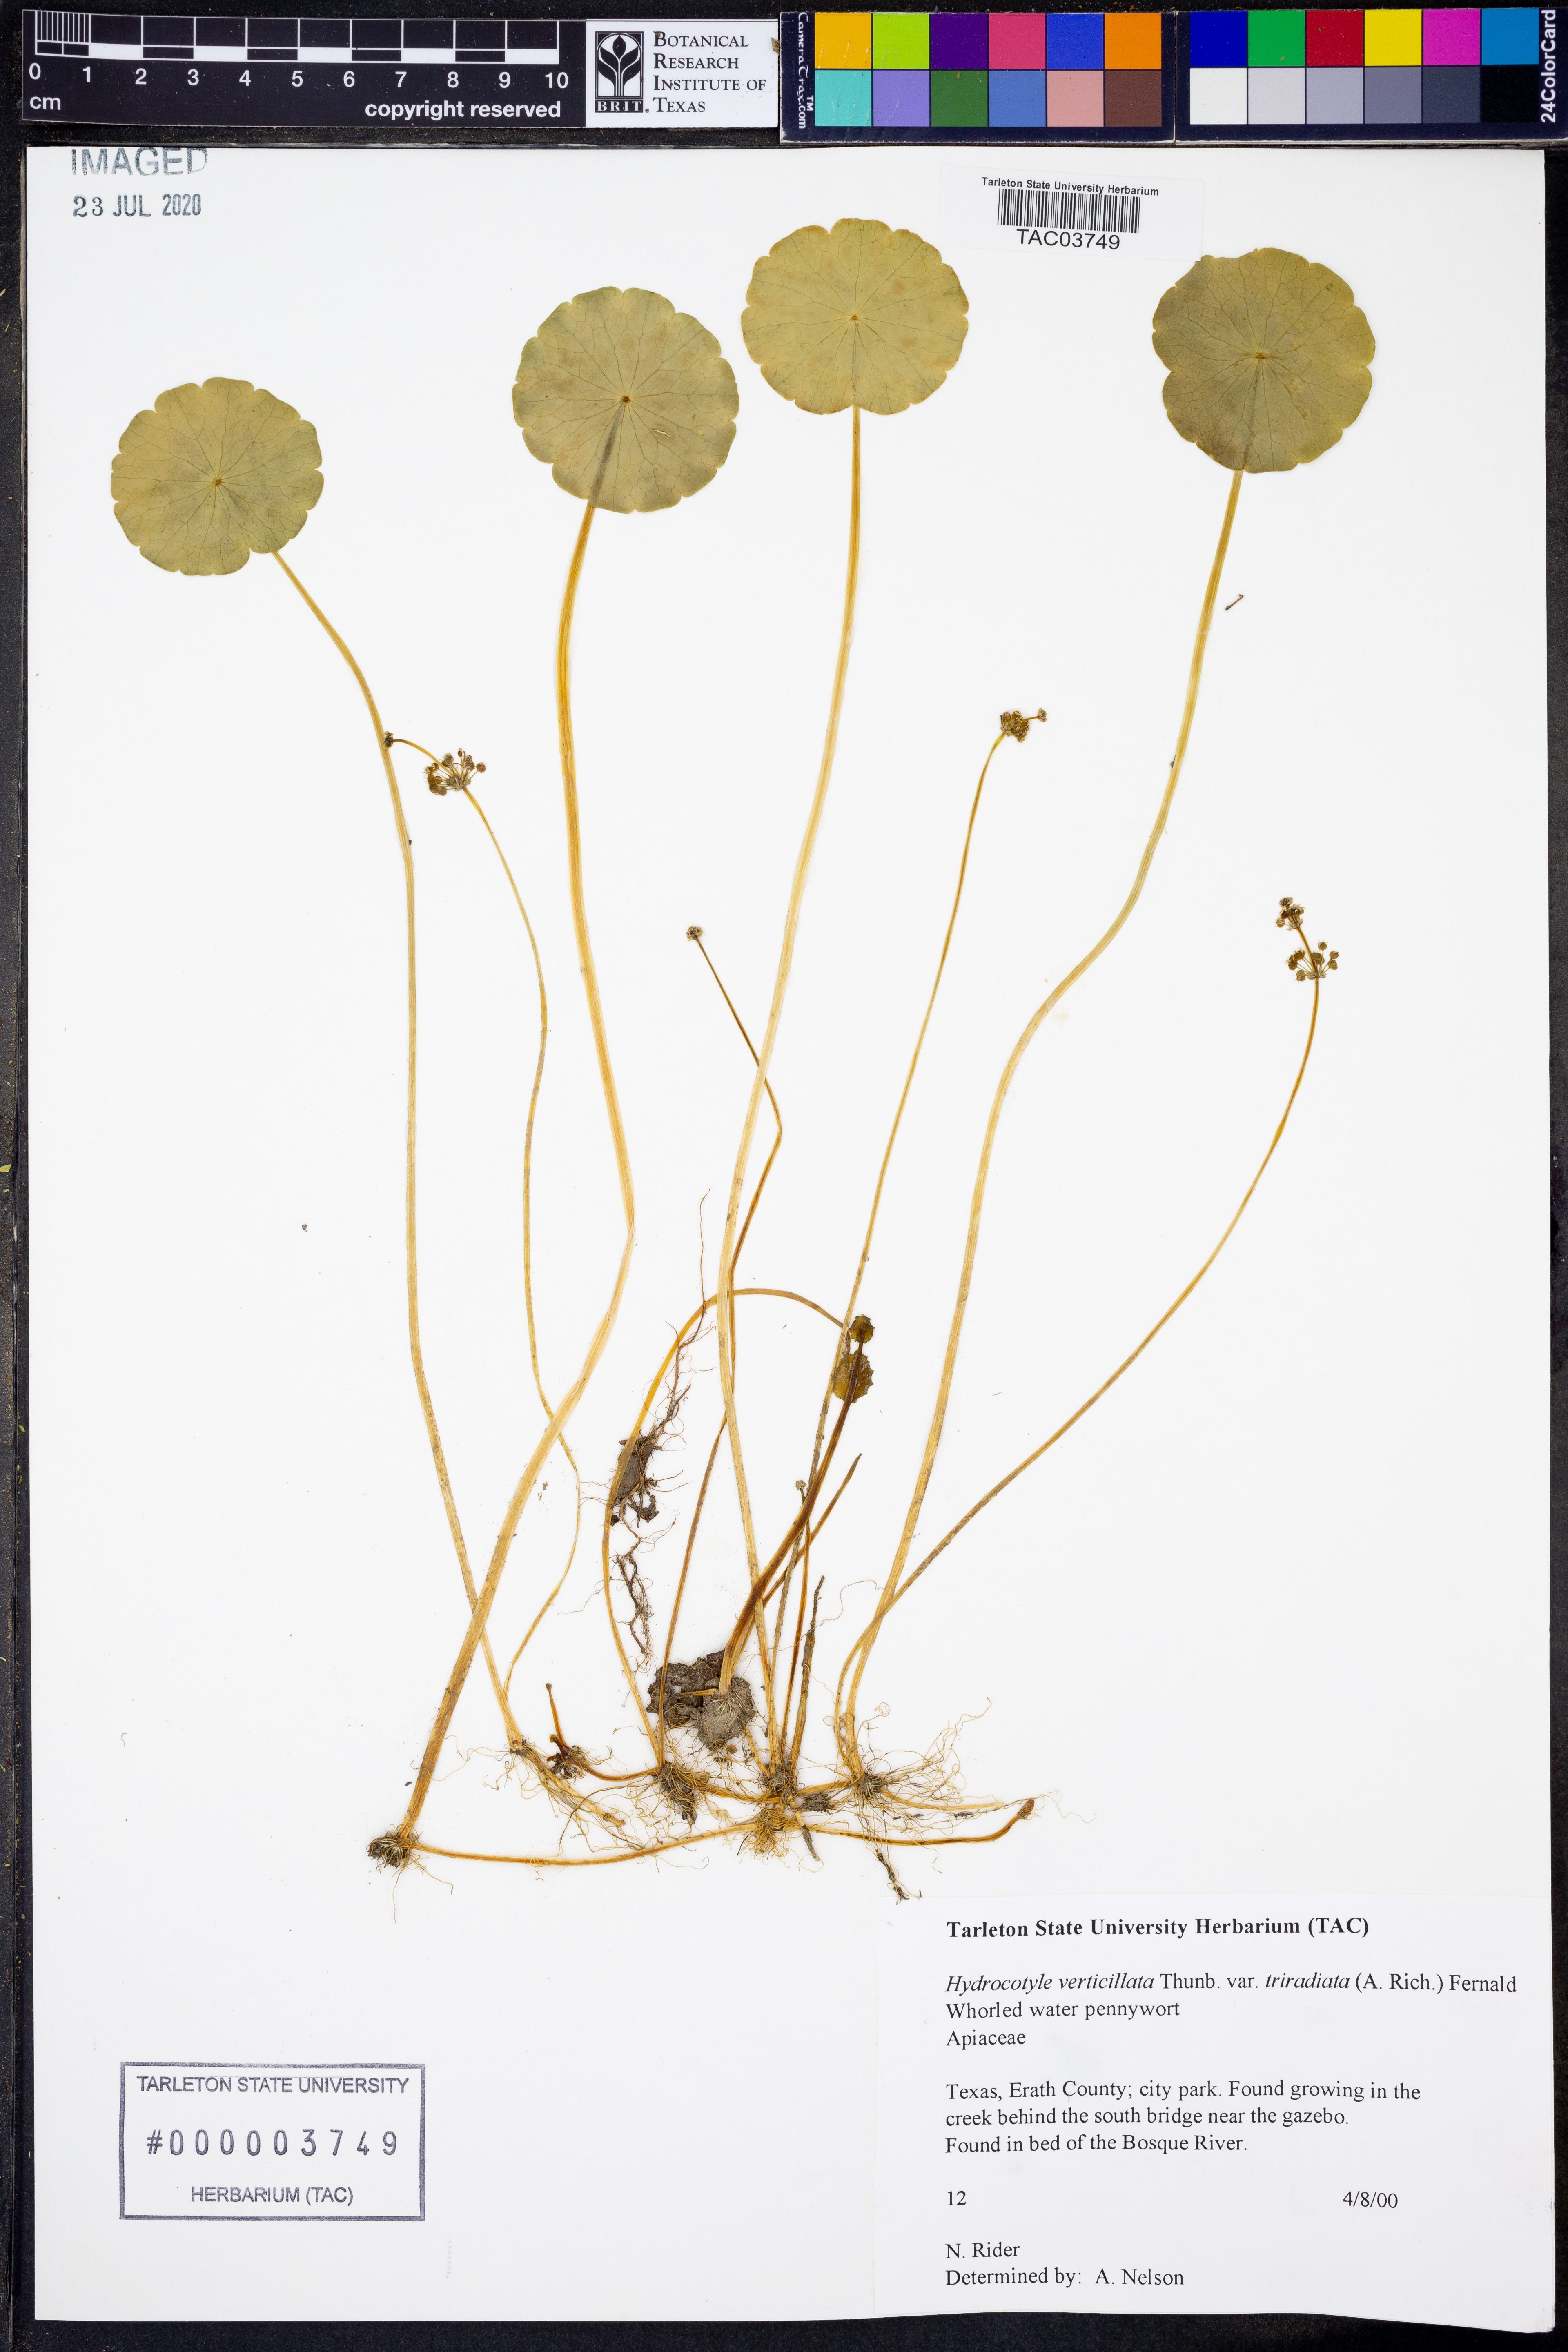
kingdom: Plantae
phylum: Tracheophyta
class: Magnoliopsida
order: Apiales
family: Araliaceae
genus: Hydrocotyle
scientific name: Hydrocotyle bonariensis
